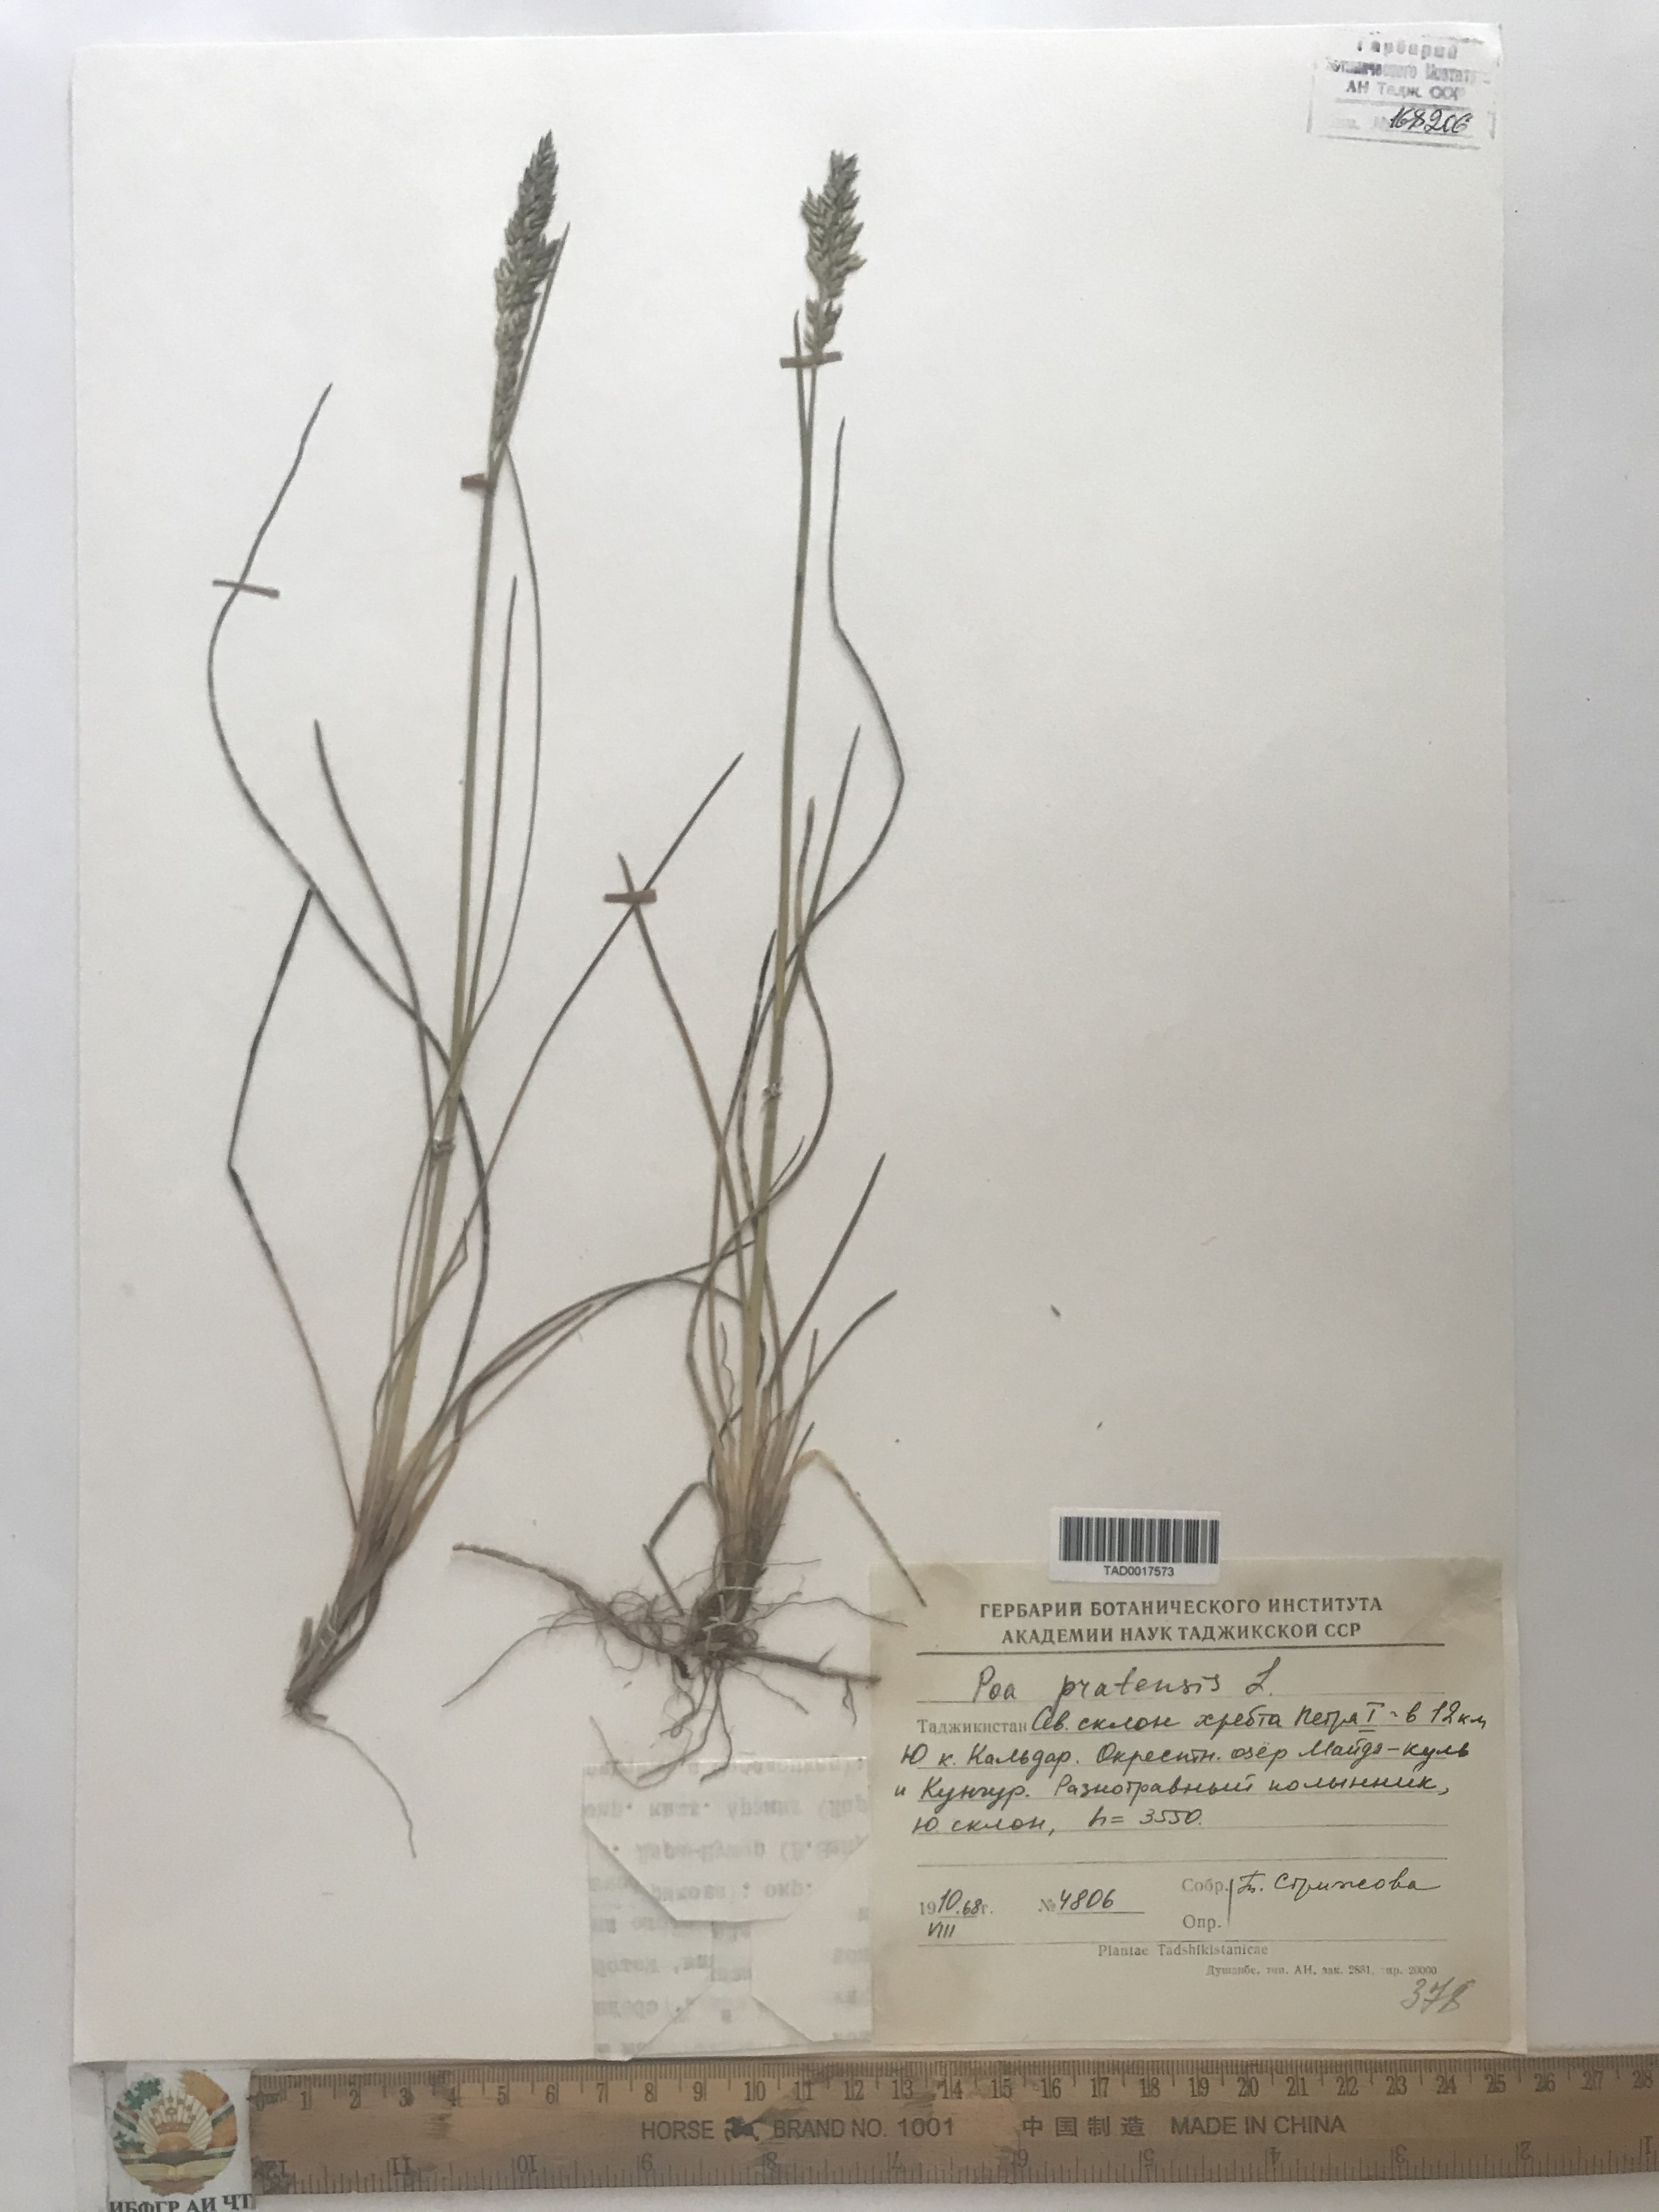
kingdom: Plantae
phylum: Tracheophyta
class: Liliopsida
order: Poales
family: Poaceae
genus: Poa
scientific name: Poa pratensis
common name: Kentucky bluegrass
